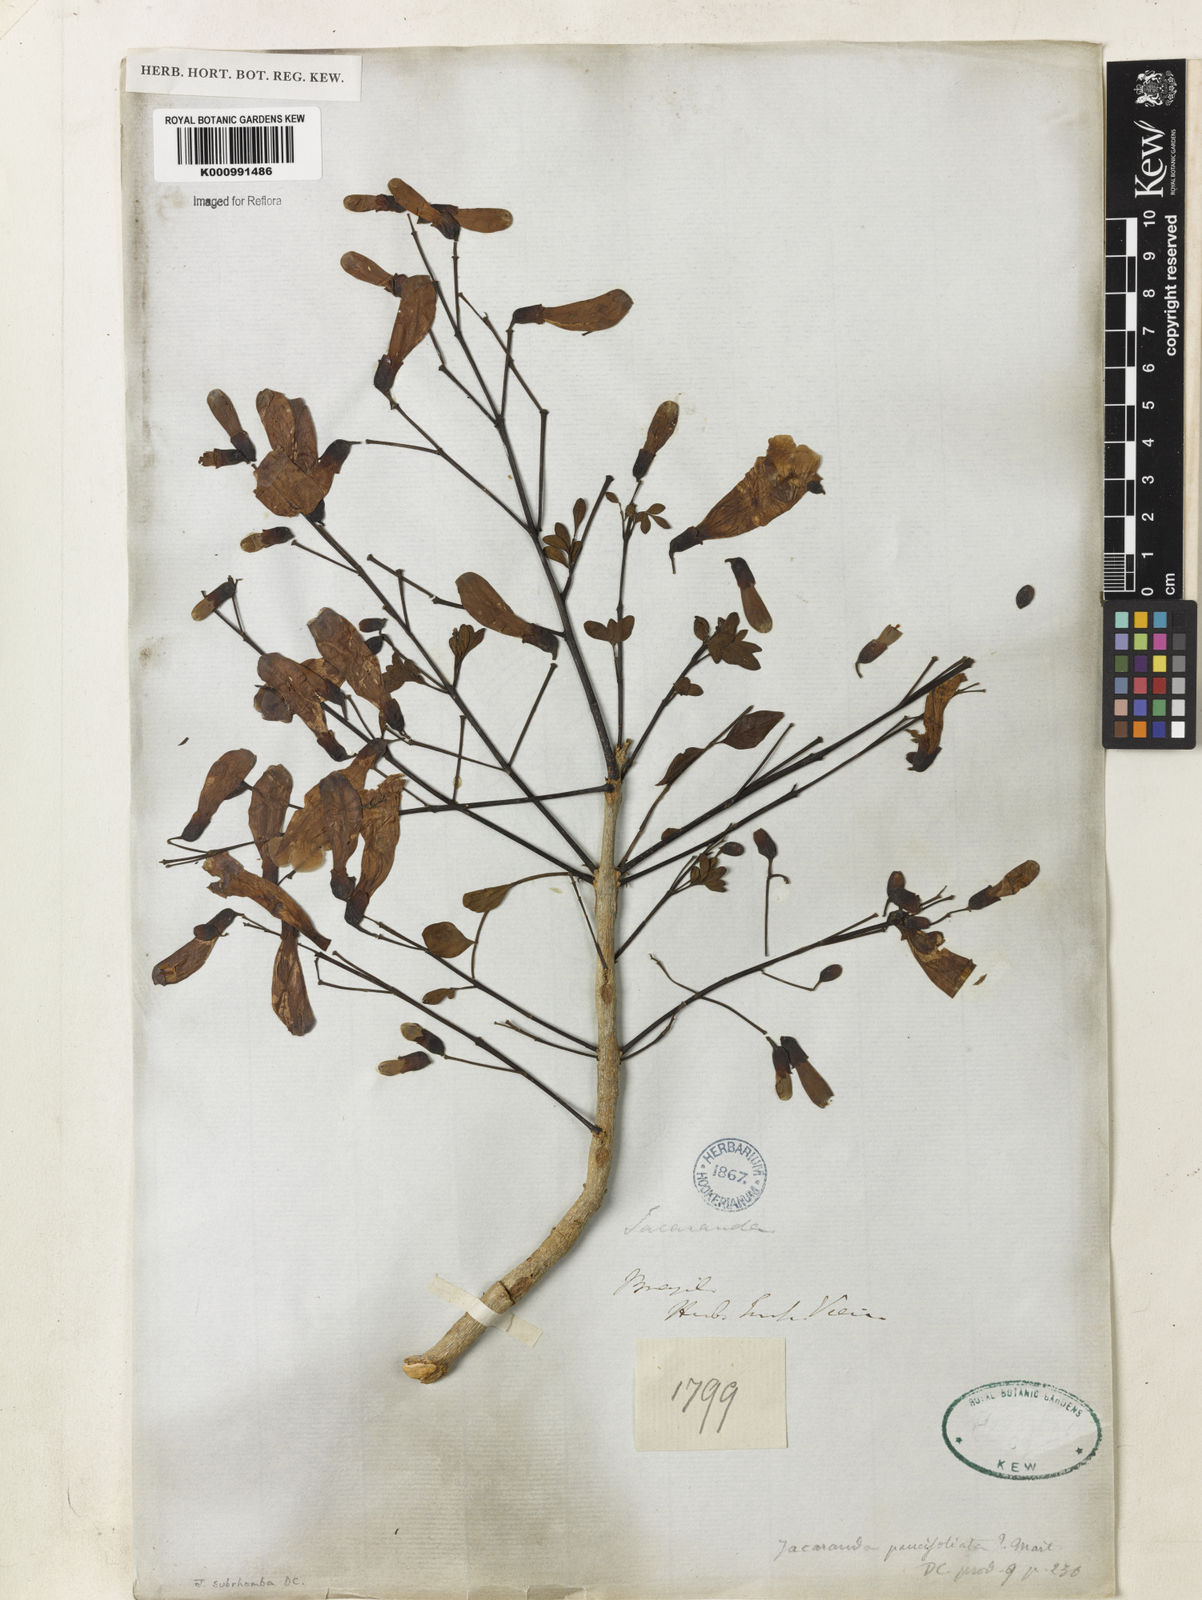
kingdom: Plantae
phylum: Tracheophyta
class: Magnoliopsida
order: Lamiales
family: Bignoniaceae
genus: Jacaranda
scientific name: Jacaranda puberula
